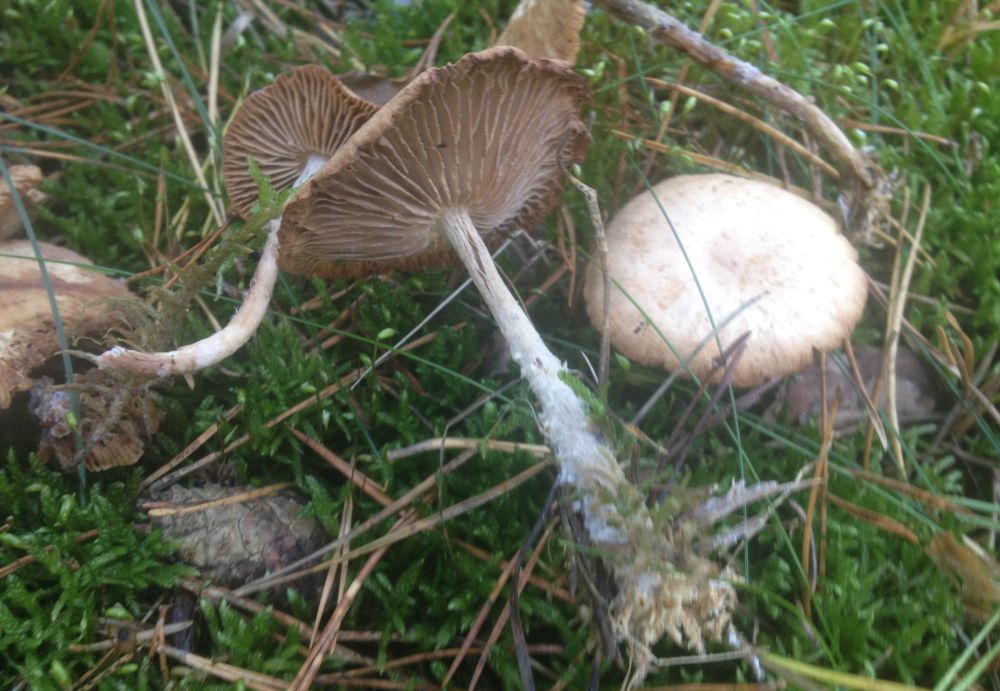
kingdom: Fungi
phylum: Basidiomycota
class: Agaricomycetes
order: Agaricales
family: Omphalotaceae
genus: Collybiopsis
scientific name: Collybiopsis peronata
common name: bestøvlet fladhat
